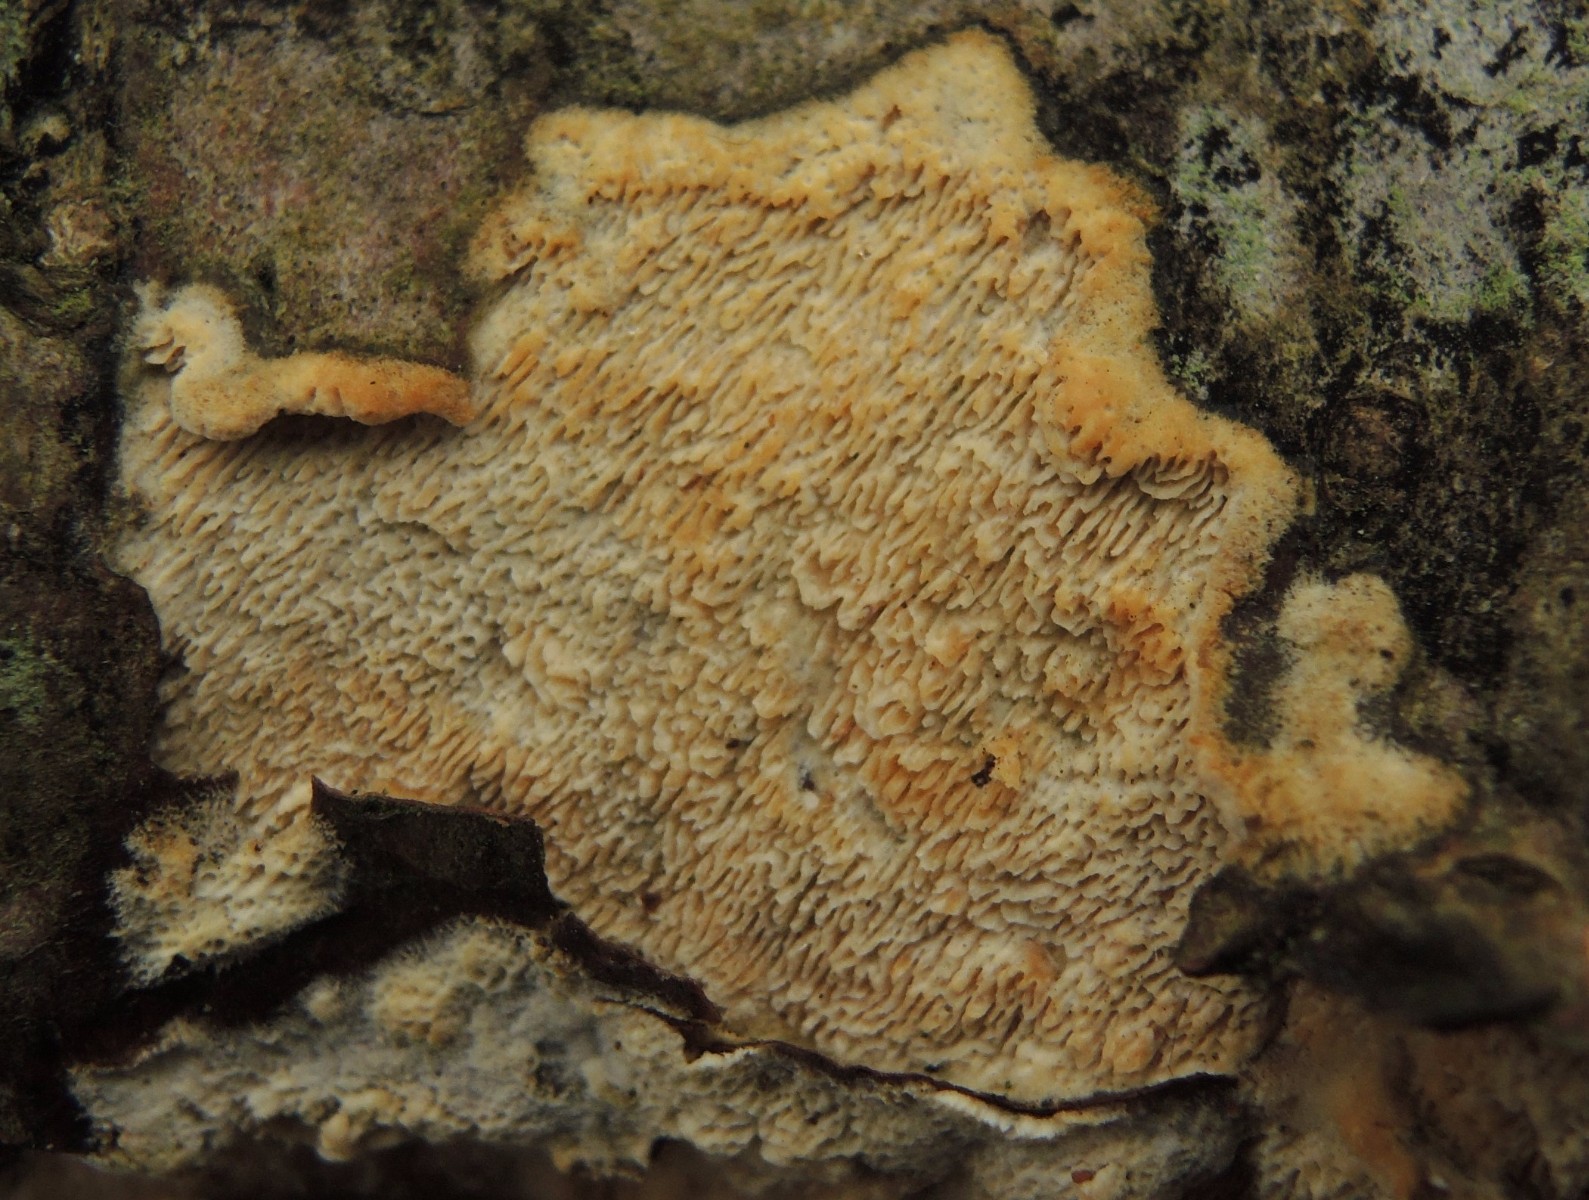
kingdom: Fungi
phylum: Basidiomycota
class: Agaricomycetes
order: Hymenochaetales
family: Schizoporaceae
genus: Schizopora
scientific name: Schizopora paradoxa
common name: hvid tandsvamp
